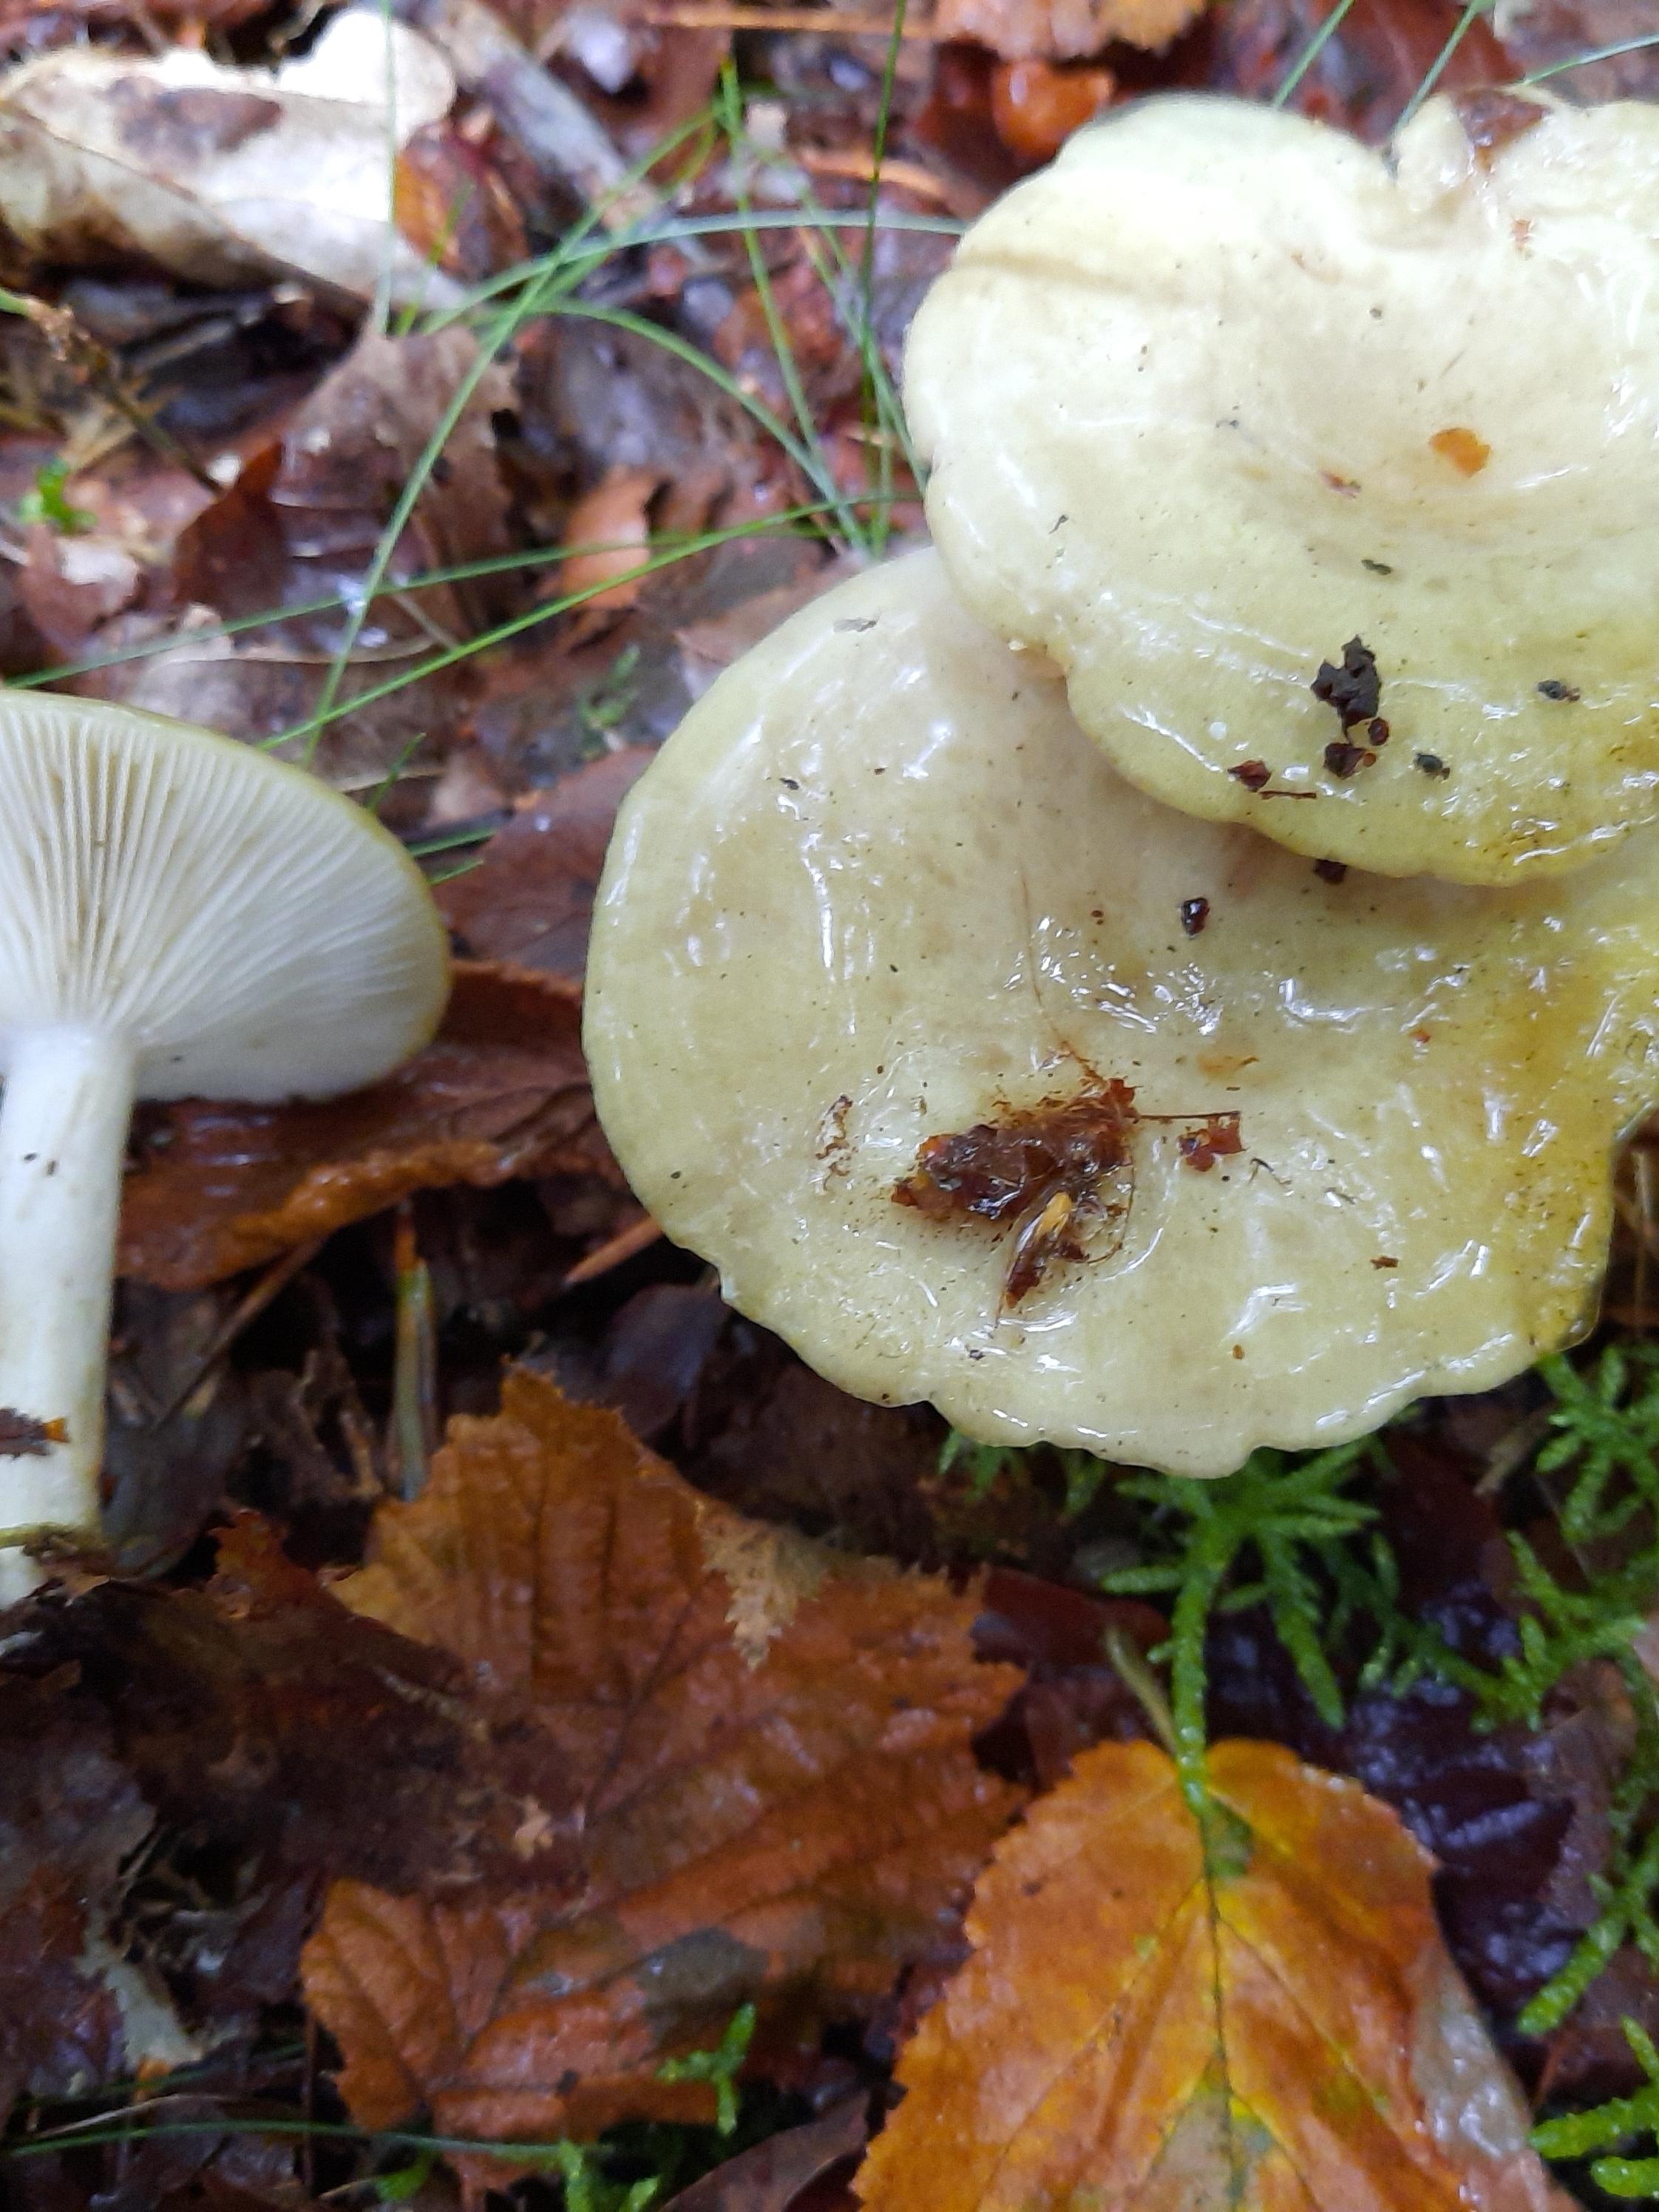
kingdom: Fungi
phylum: Basidiomycota
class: Agaricomycetes
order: Russulales
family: Russulaceae
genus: Lactarius
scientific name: Lactarius blennius
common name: dråbeplettet mælkehat
